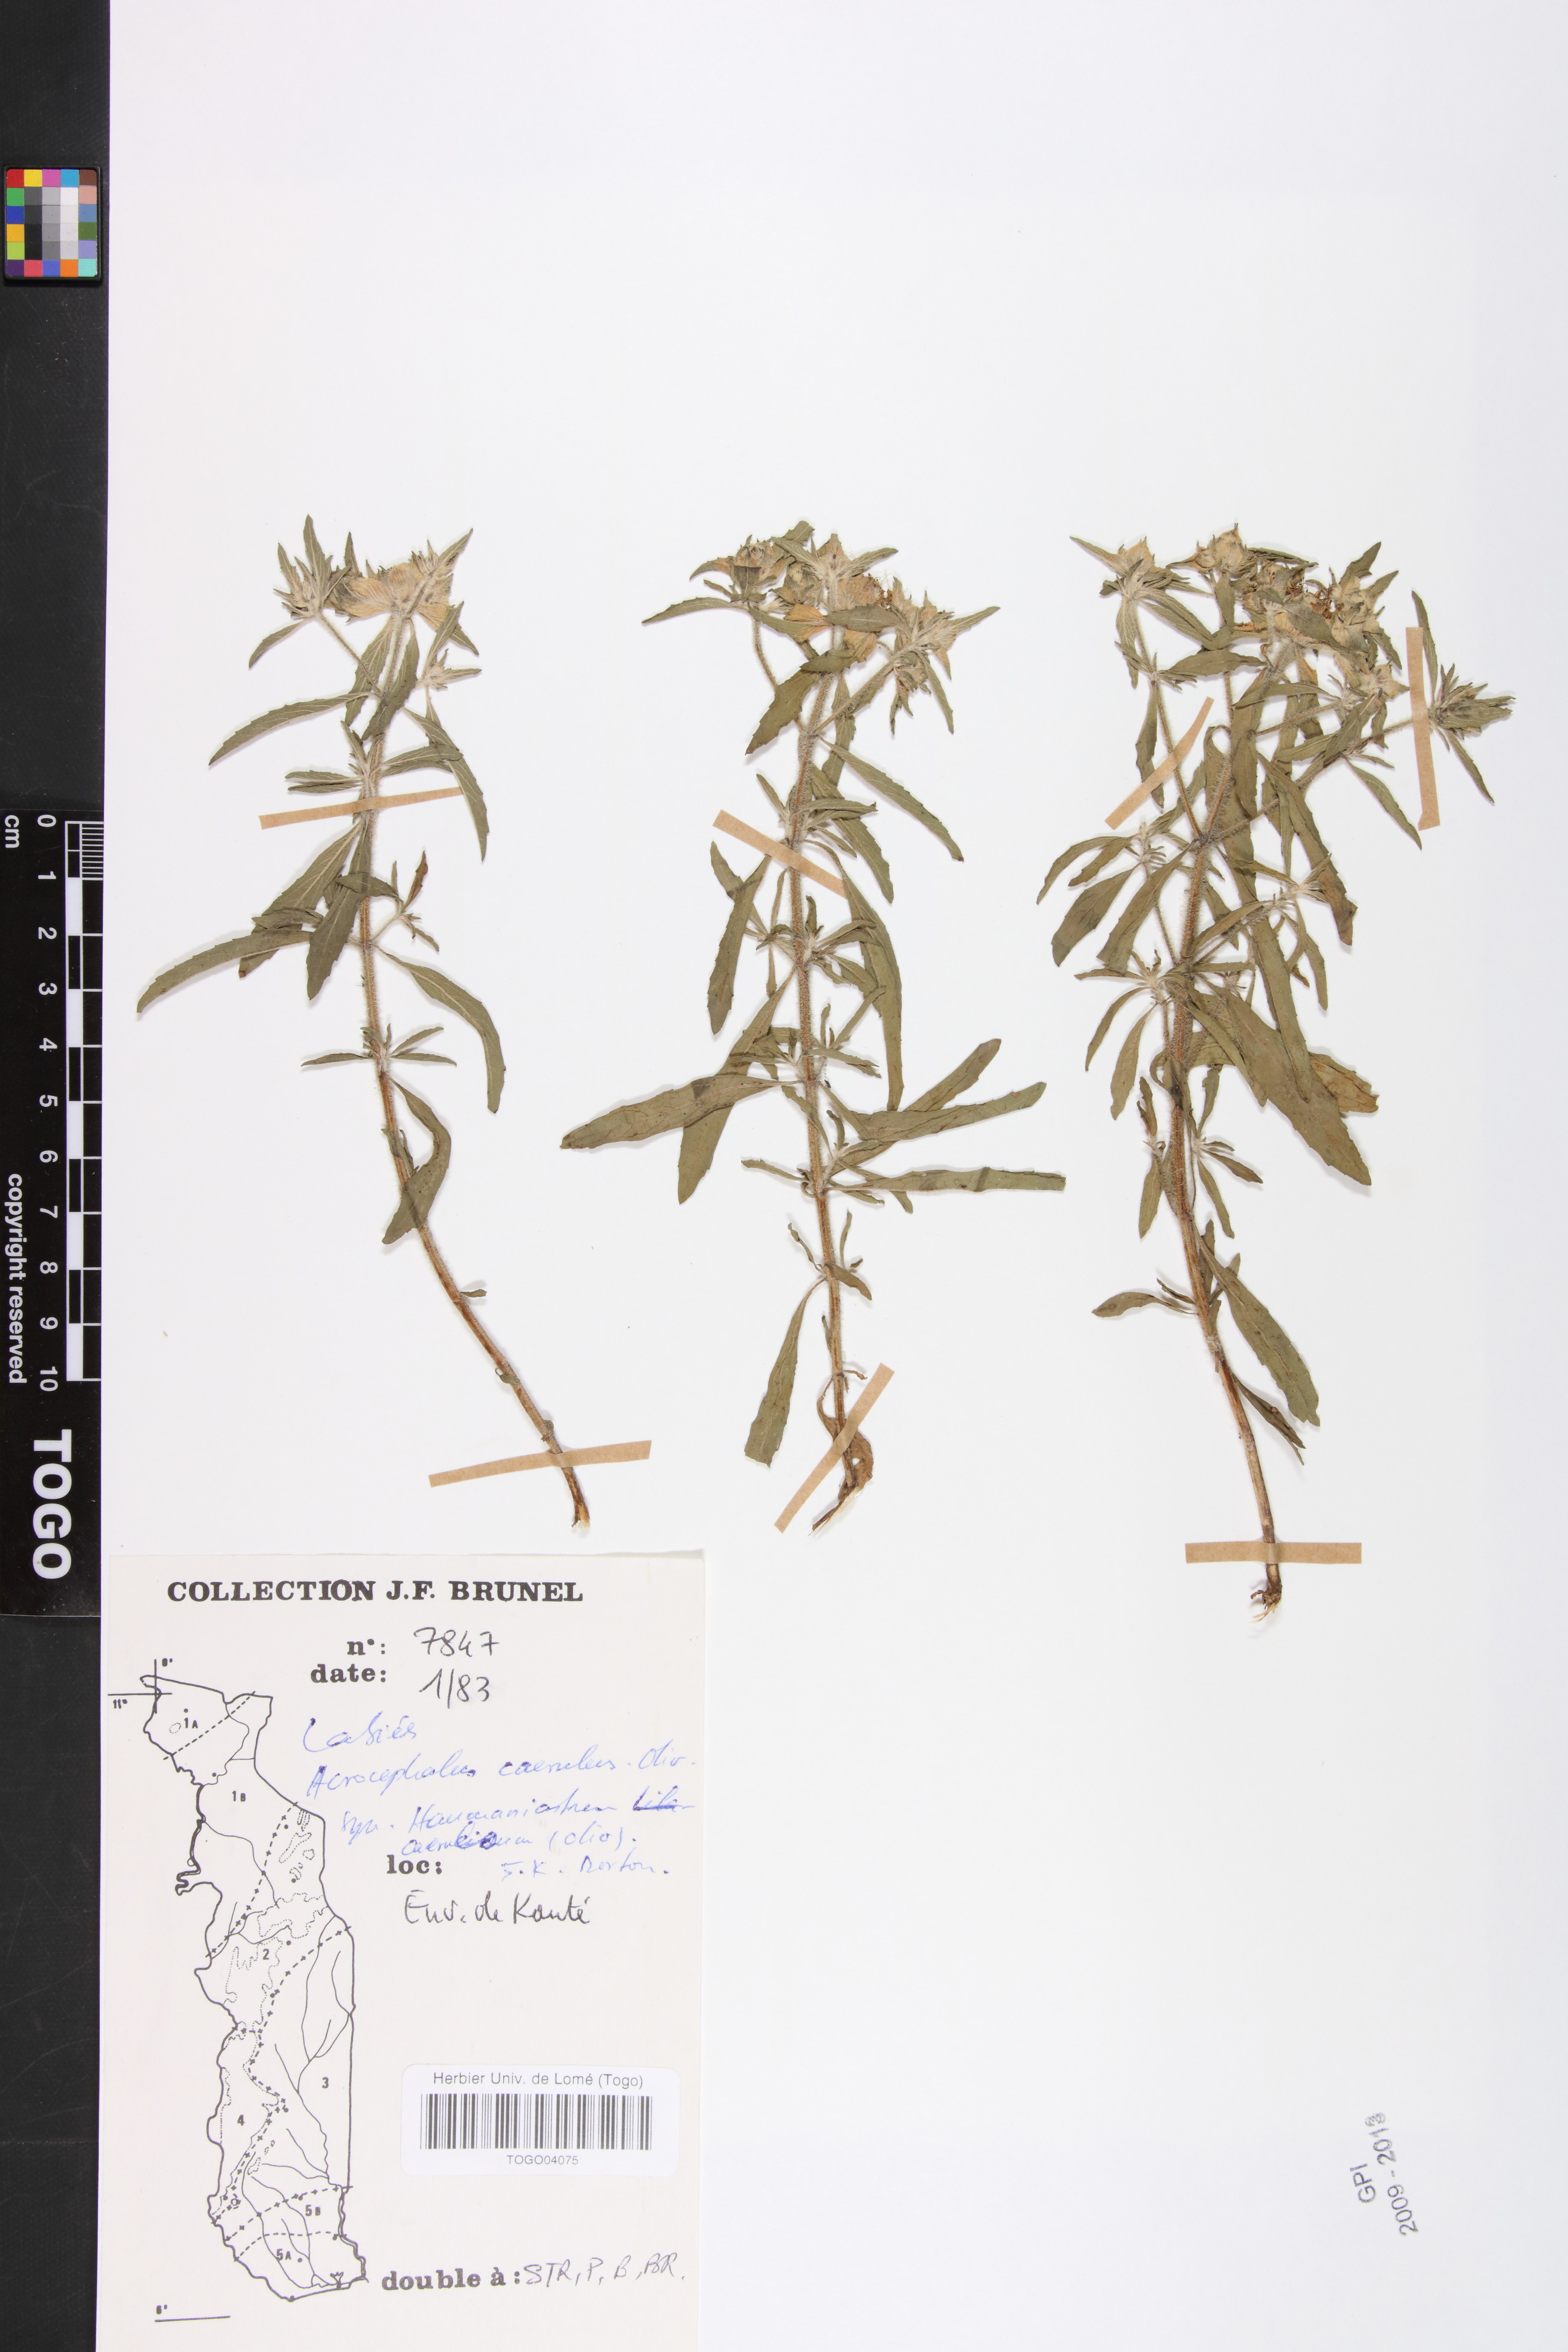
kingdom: Plantae
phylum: Tracheophyta
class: Magnoliopsida
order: Lamiales
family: Lamiaceae
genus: Haumaniastrum
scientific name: Haumaniastrum caeruleum
